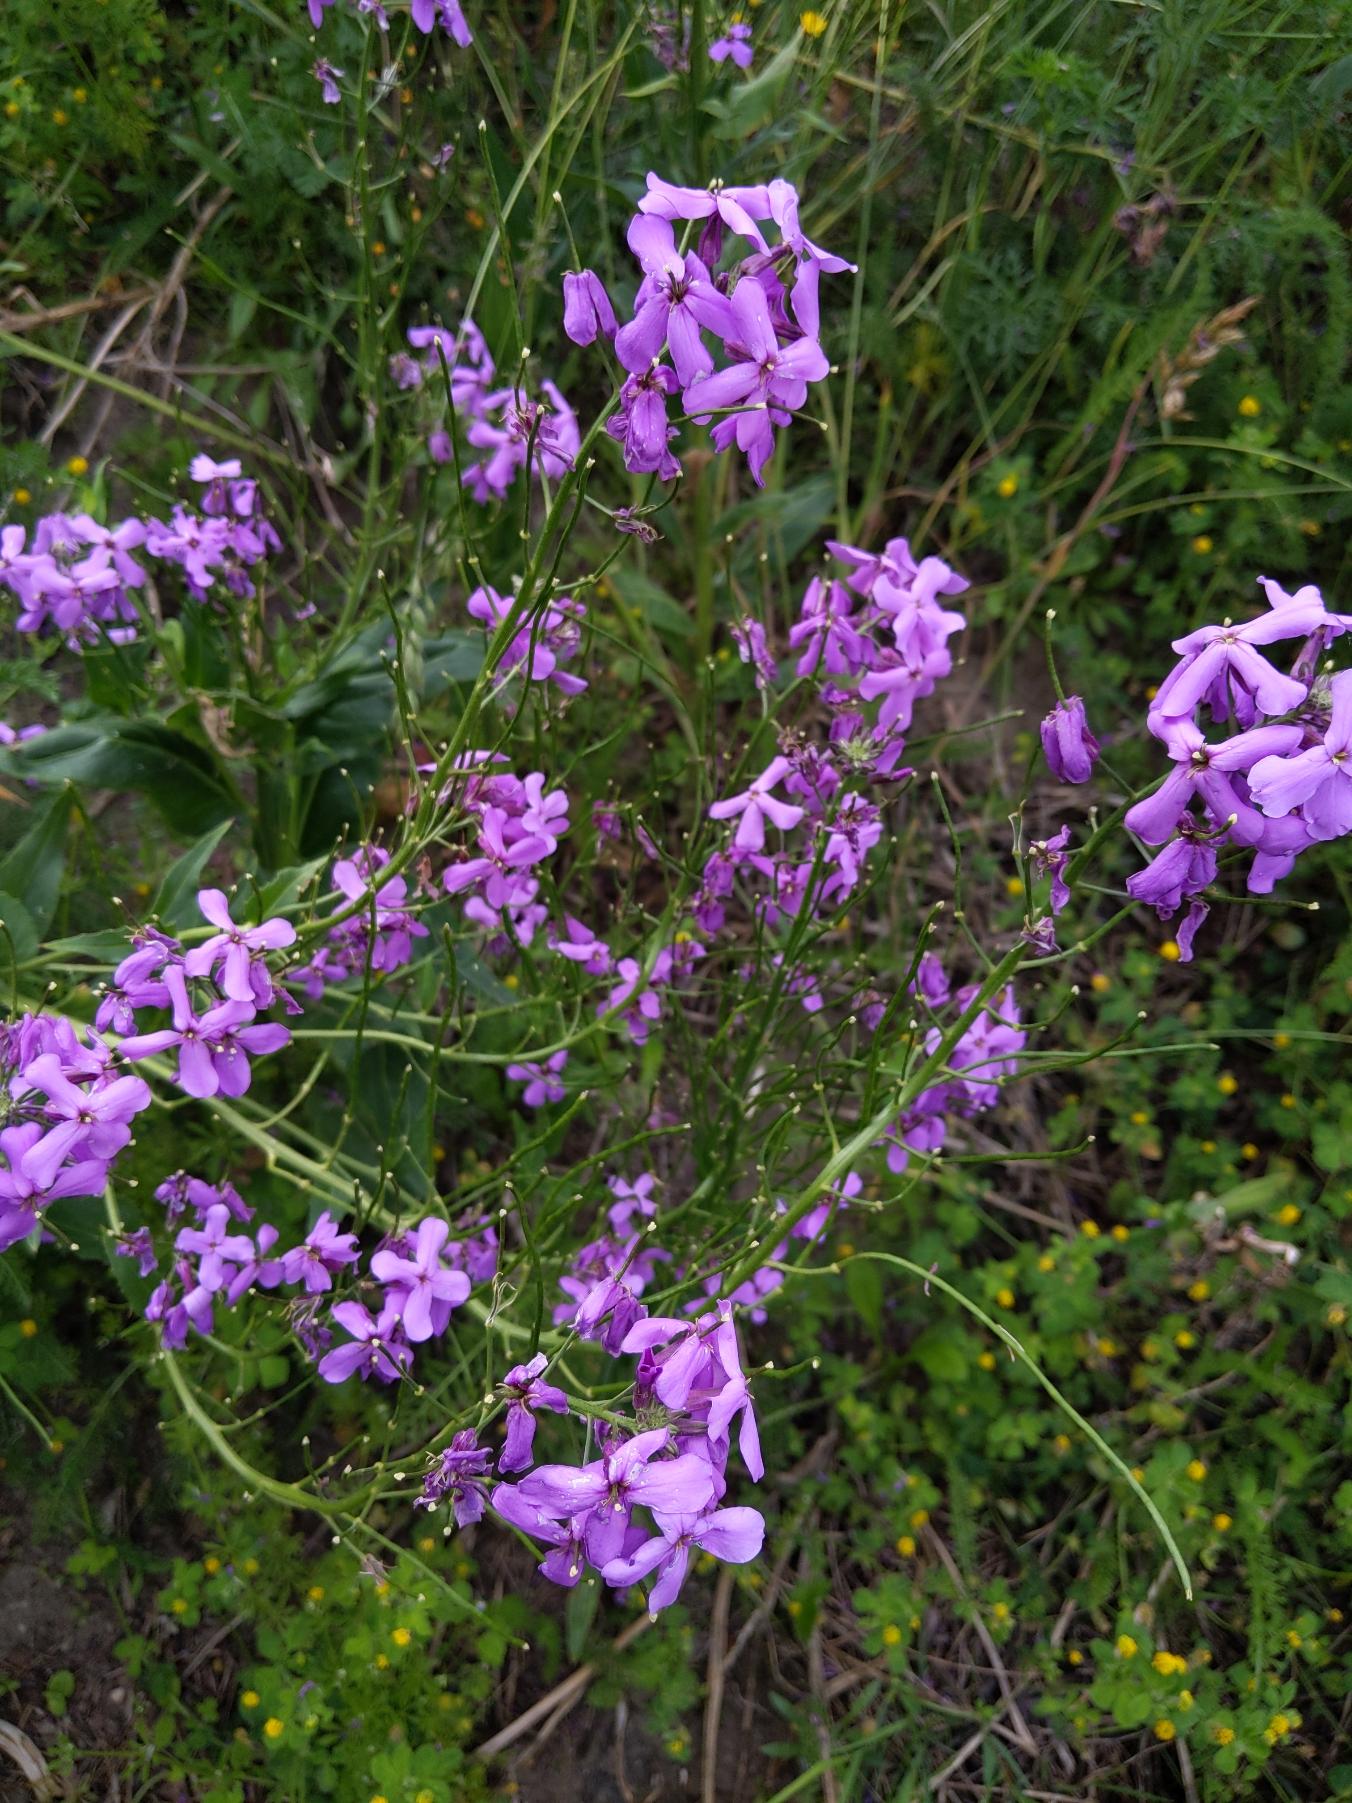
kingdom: Plantae
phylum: Tracheophyta
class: Magnoliopsida
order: Brassicales
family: Brassicaceae
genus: Hesperis
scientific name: Hesperis matronalis
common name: Aftenstjerne
